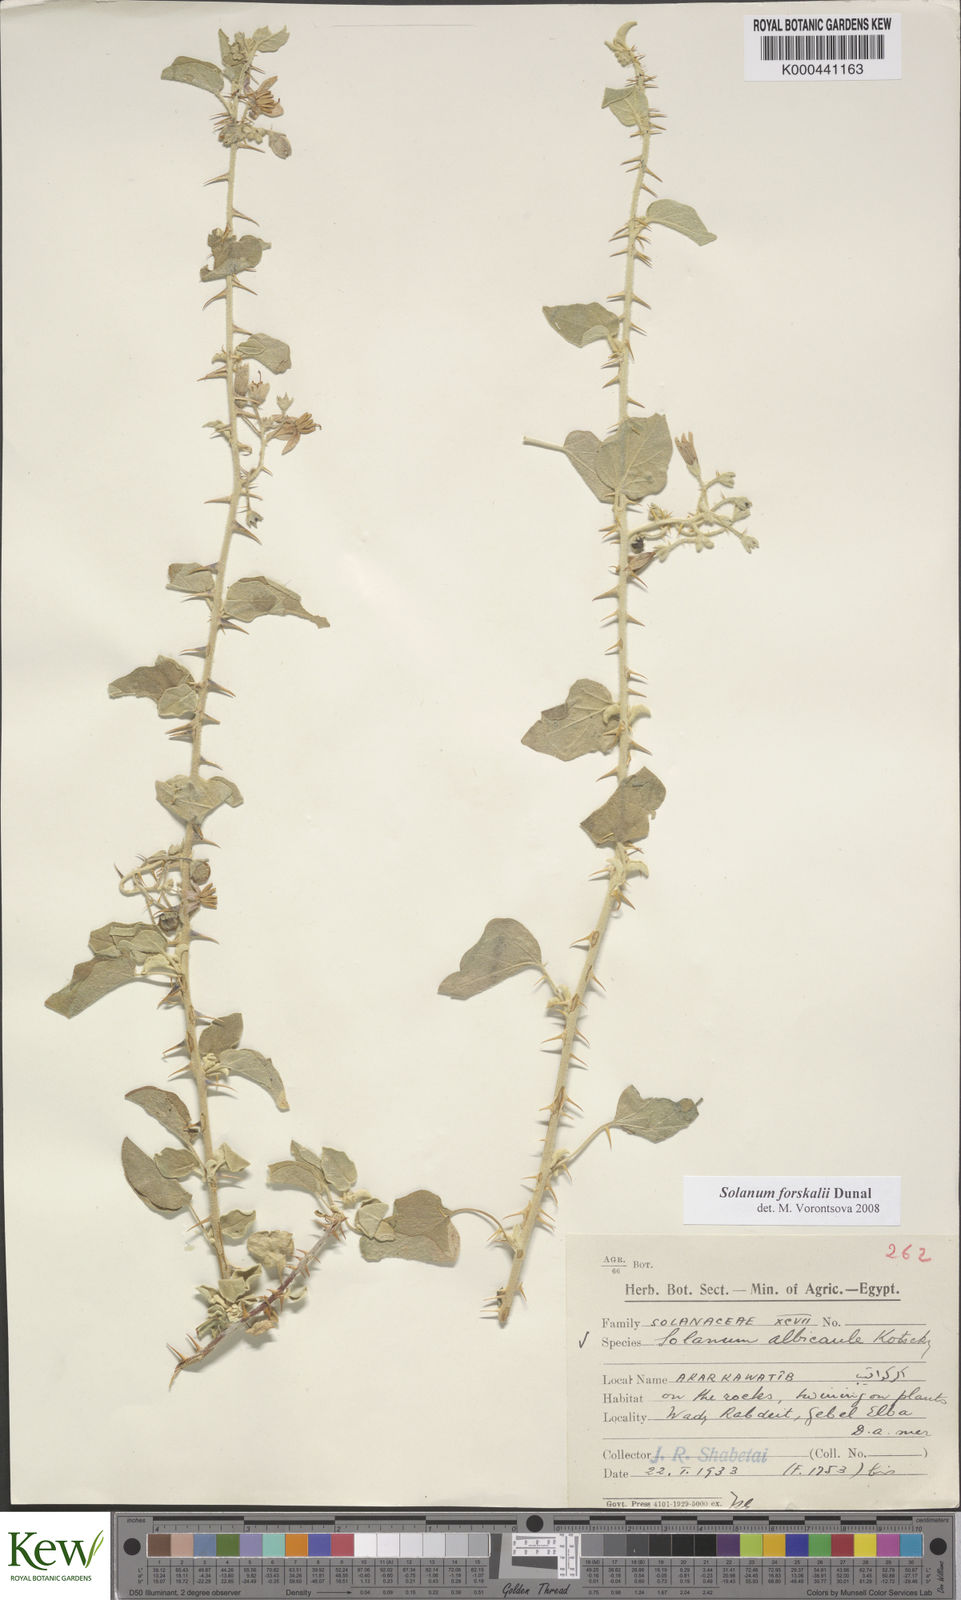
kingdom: Plantae
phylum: Tracheophyta
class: Magnoliopsida
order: Solanales
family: Solanaceae
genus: Solanum
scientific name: Solanum
